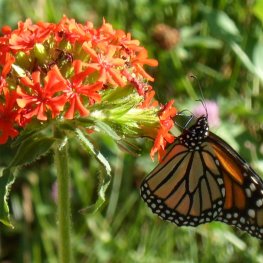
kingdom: Animalia
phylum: Arthropoda
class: Insecta
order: Lepidoptera
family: Nymphalidae
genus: Danaus
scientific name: Danaus plexippus
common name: Monarch
